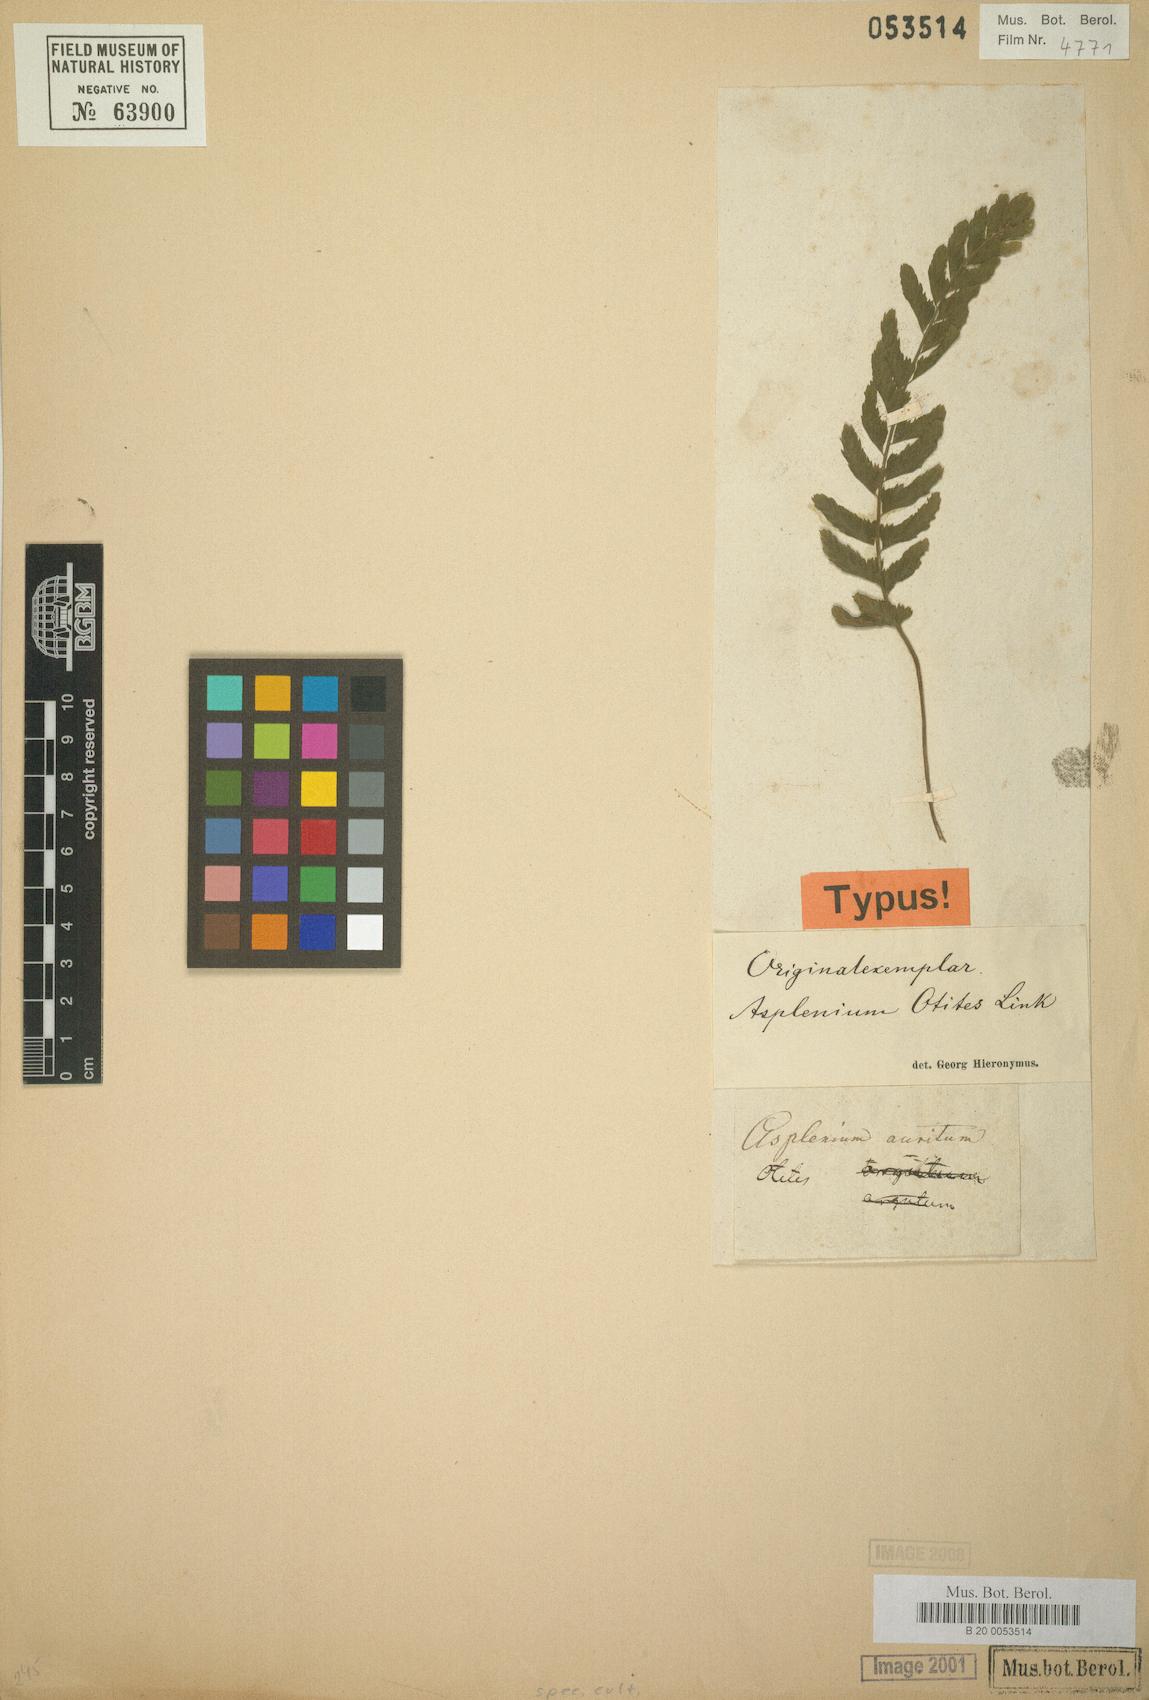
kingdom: Plantae
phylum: Tracheophyta
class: Polypodiopsida
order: Polypodiales
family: Aspleniaceae
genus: Asplenium
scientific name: Asplenium otites
